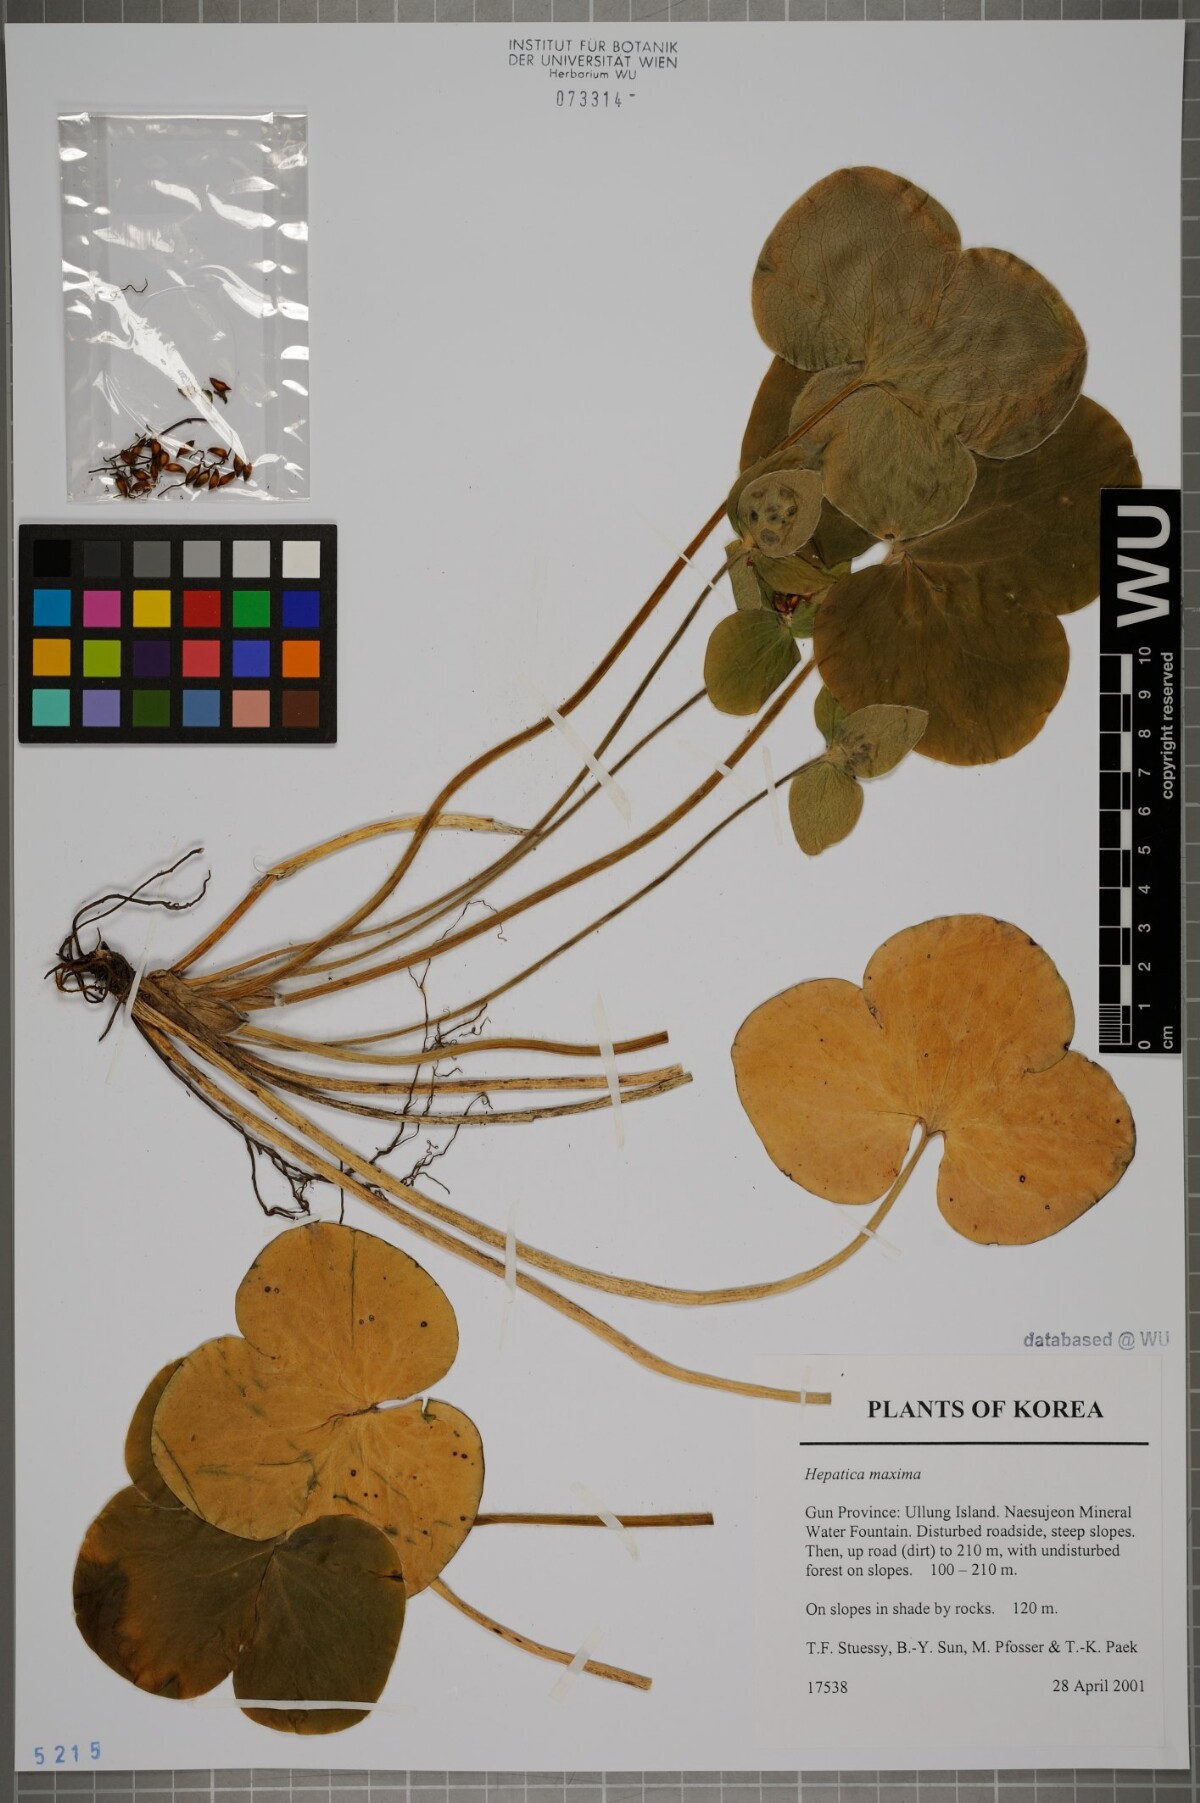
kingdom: Plantae
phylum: Tracheophyta
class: Magnoliopsida
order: Ranunculales
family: Ranunculaceae
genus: Hepatica
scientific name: Hepatica maxima
